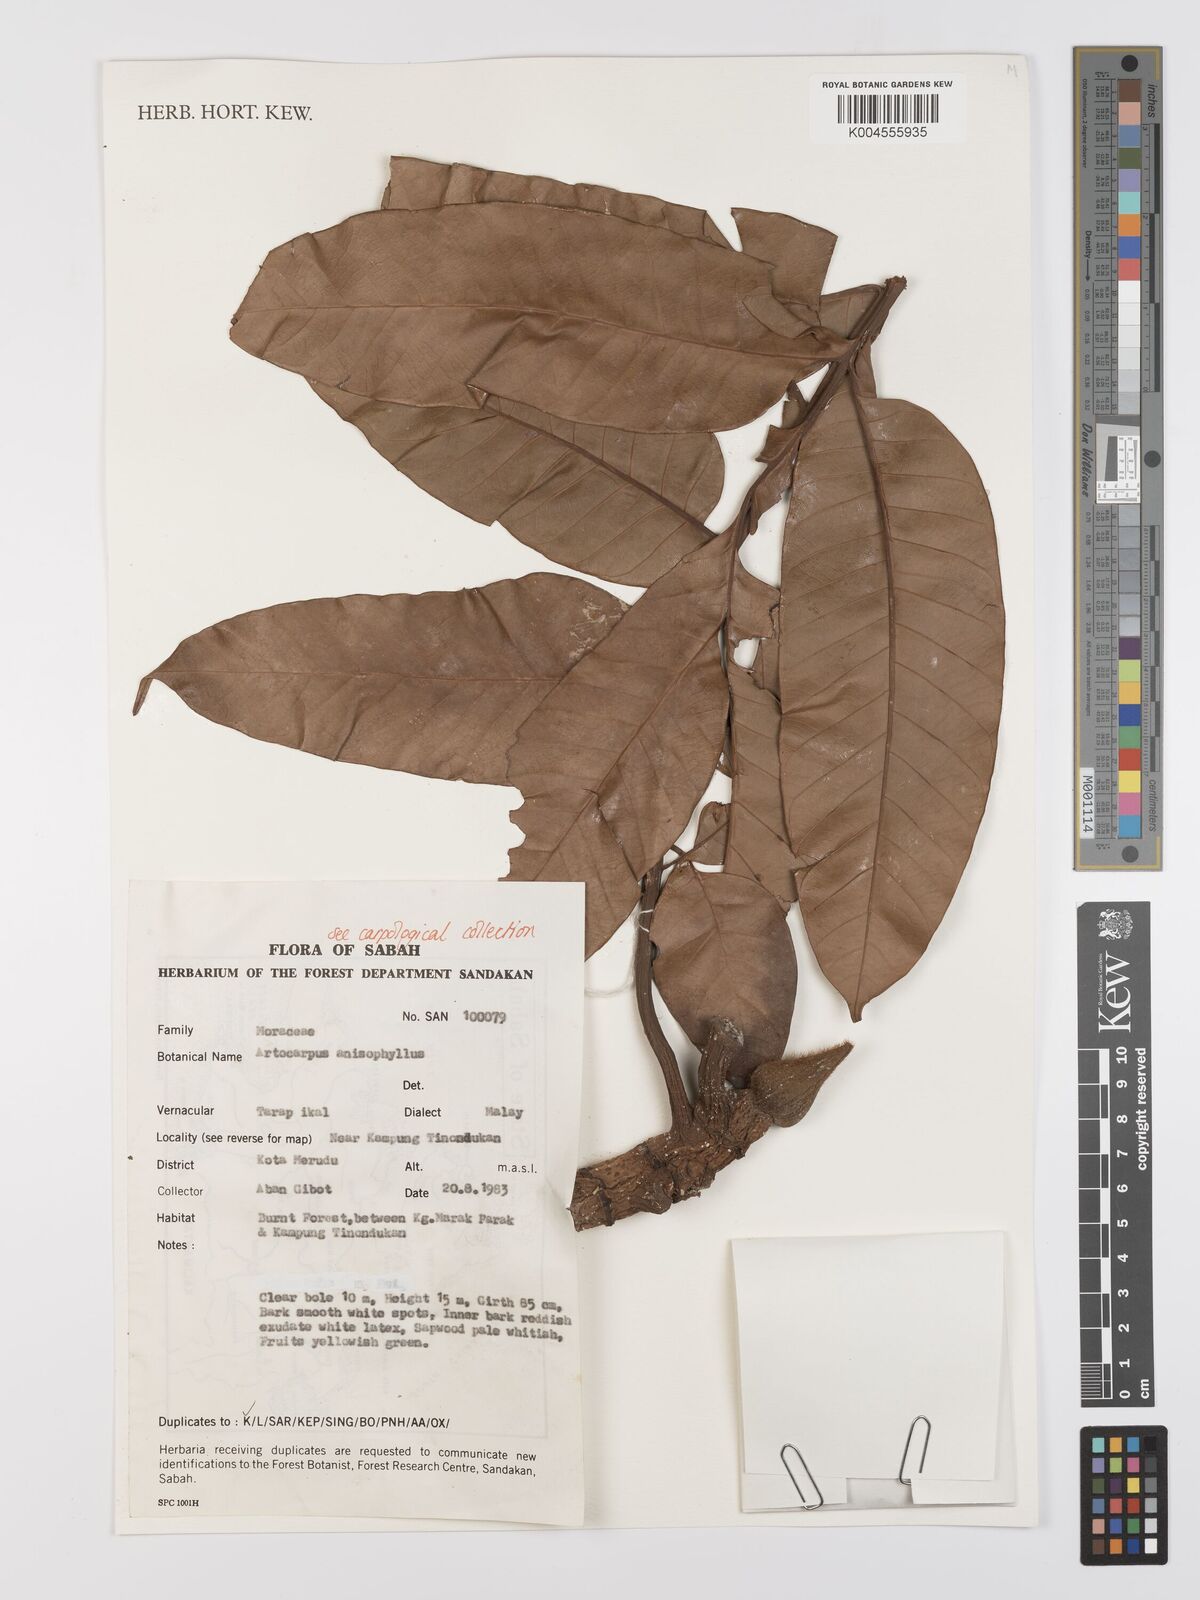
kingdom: Plantae
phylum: Tracheophyta
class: Magnoliopsida
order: Rosales
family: Moraceae
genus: Artocarpus
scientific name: Artocarpus anisophyllus
